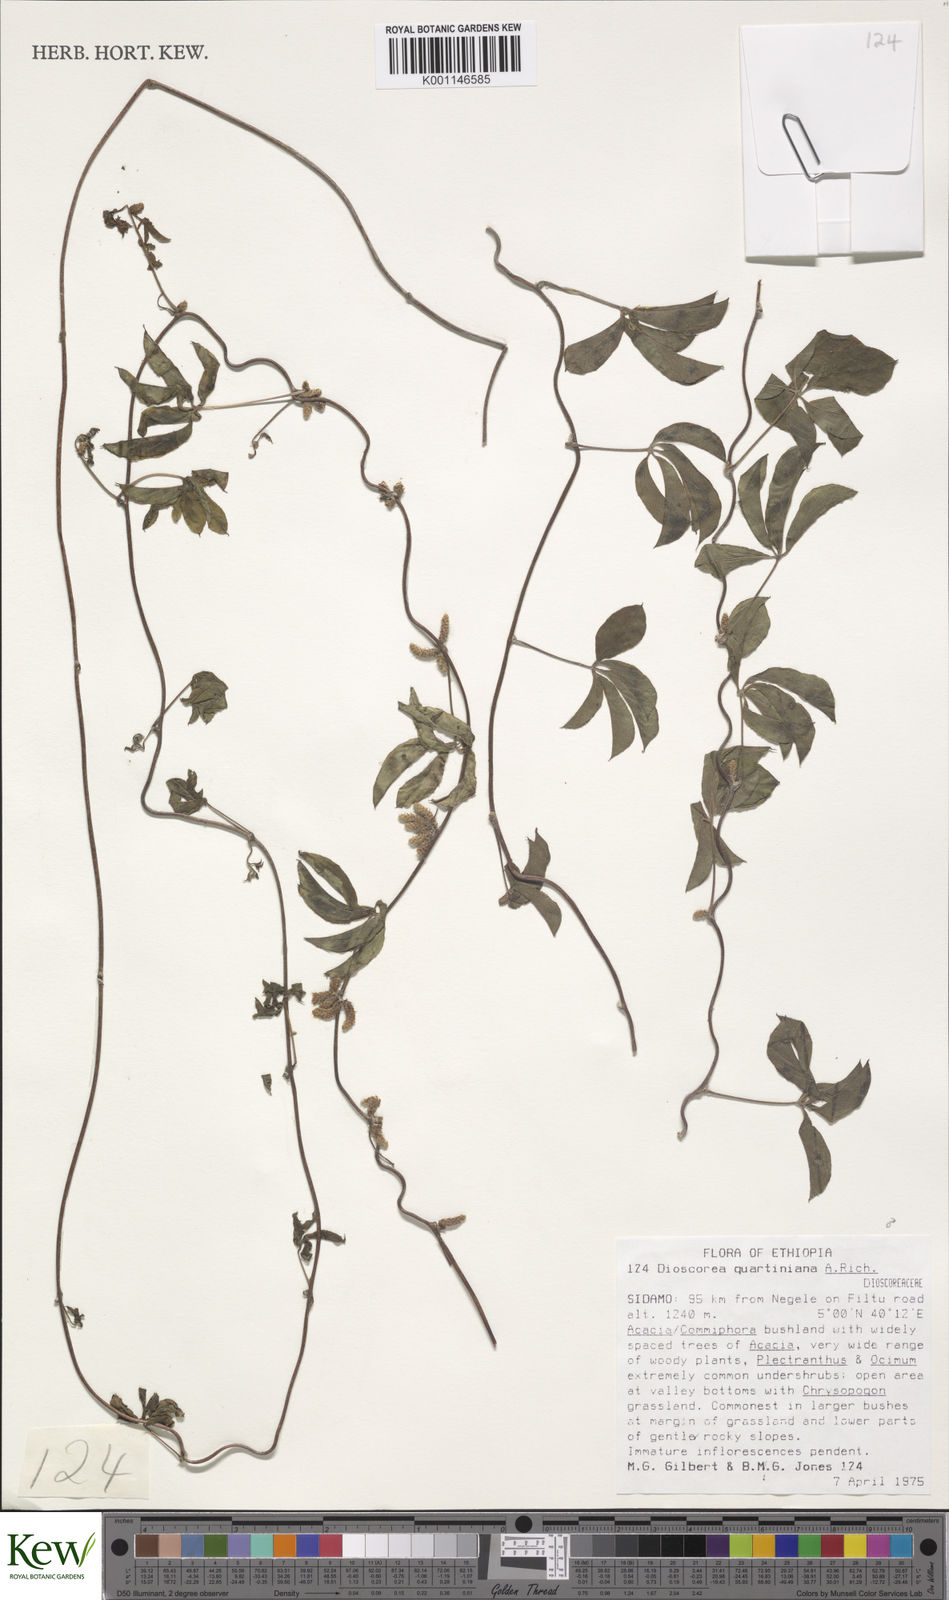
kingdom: Plantae
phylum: Tracheophyta
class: Liliopsida
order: Dioscoreales
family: Dioscoreaceae
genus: Dioscorea
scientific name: Dioscorea quartiniana
